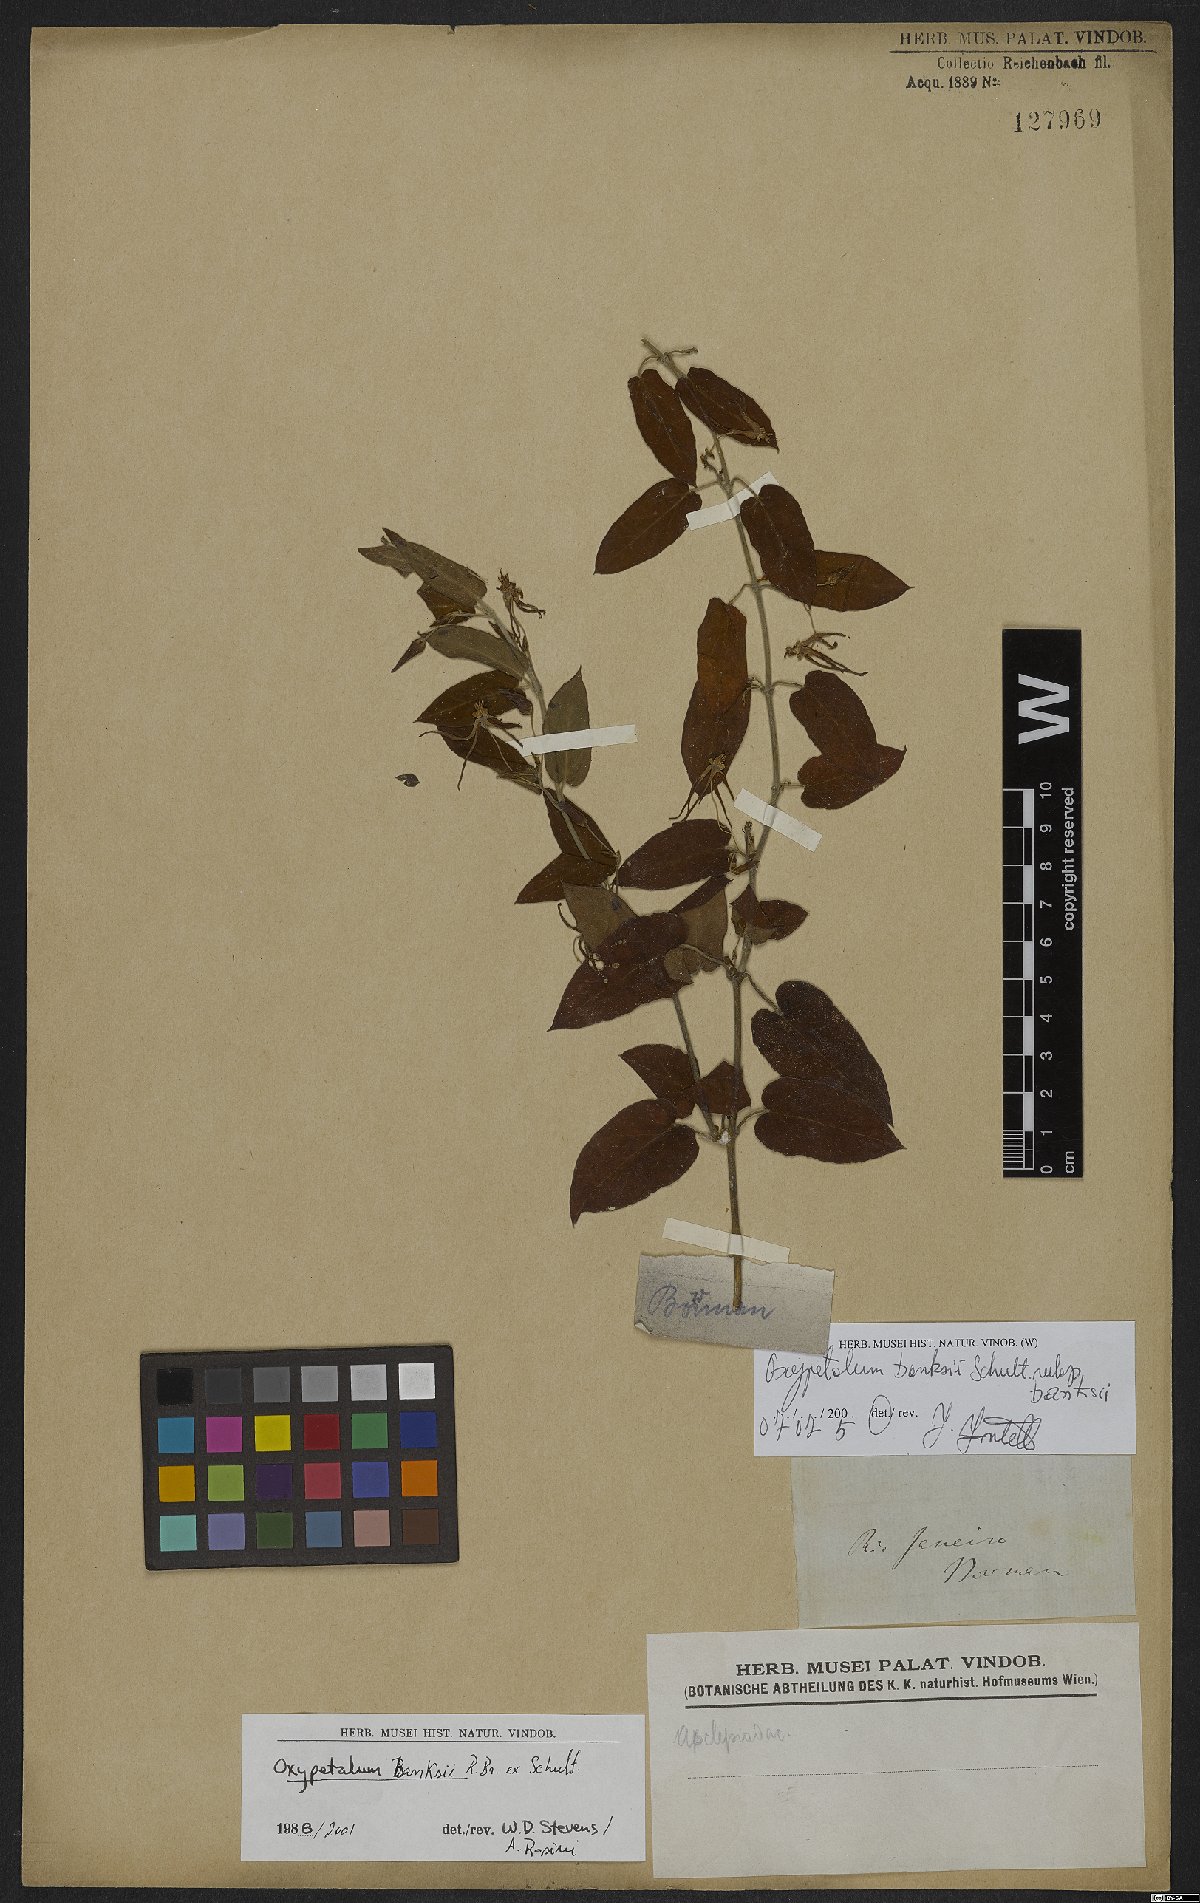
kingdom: Plantae
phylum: Tracheophyta
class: Magnoliopsida
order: Gentianales
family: Apocynaceae
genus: Oxypetalum
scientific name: Oxypetalum banksii
